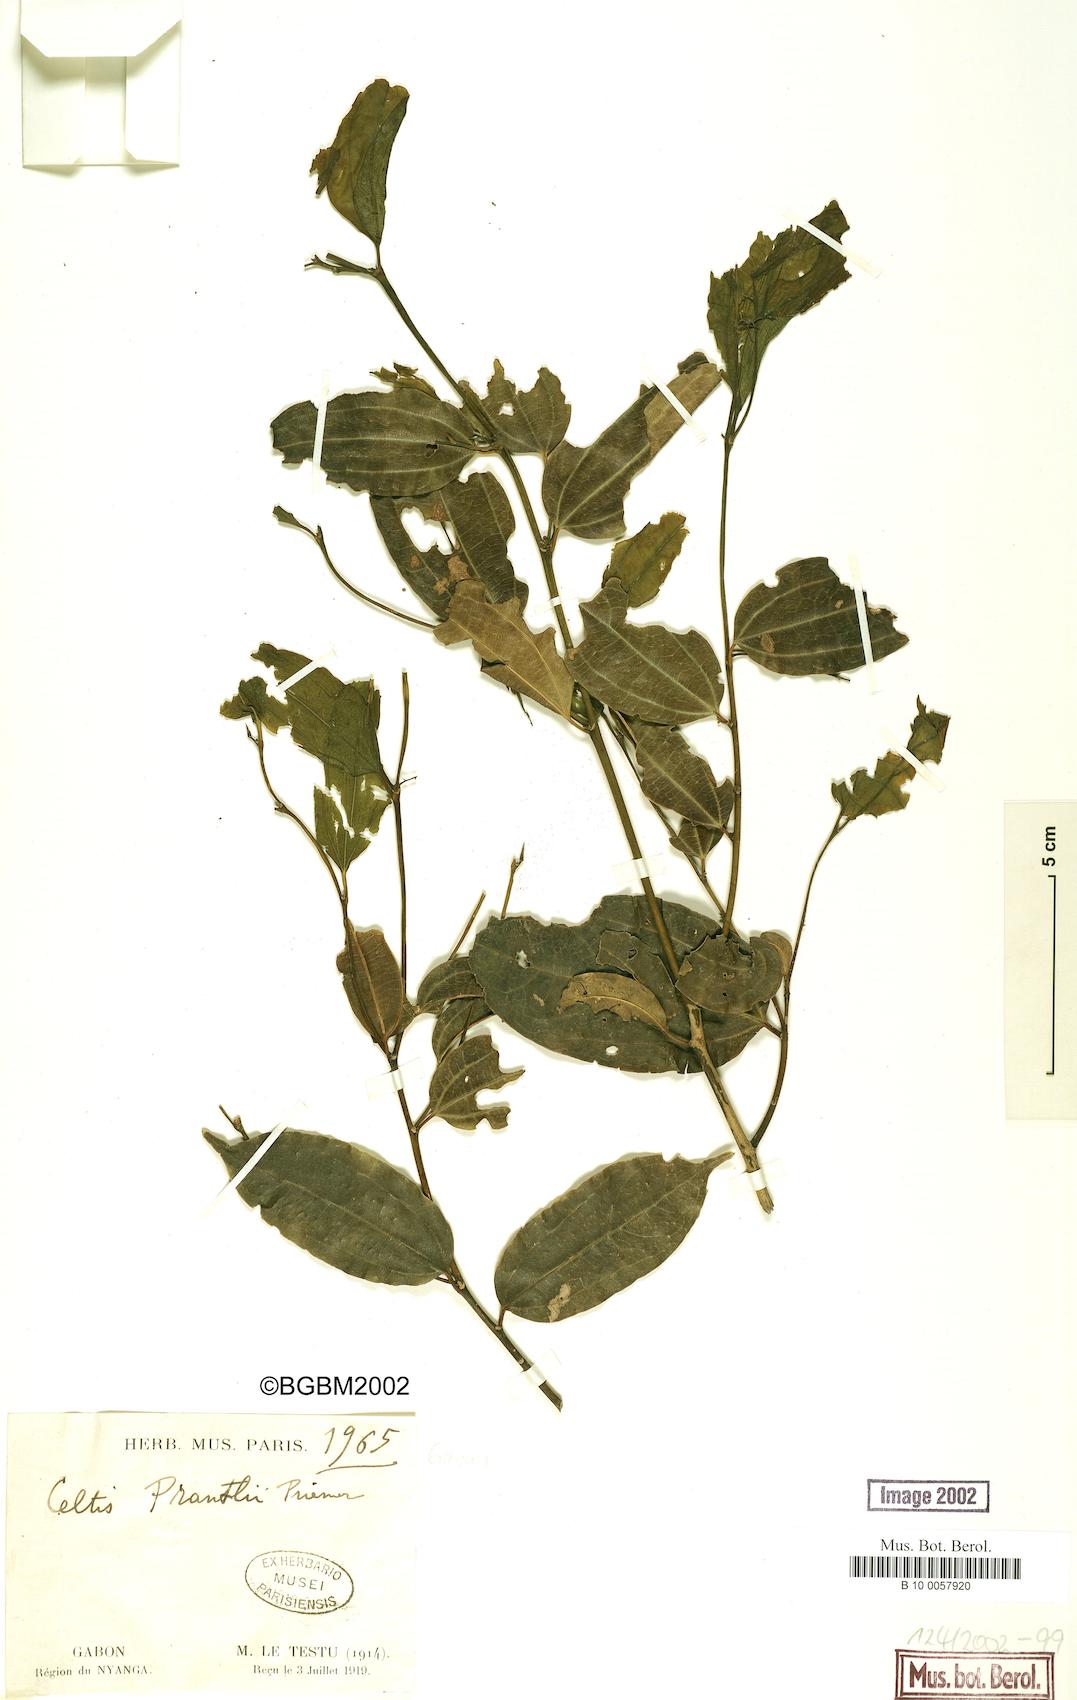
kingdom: Plantae
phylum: Tracheophyta
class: Magnoliopsida
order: Rosales
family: Cannabaceae
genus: Celtis
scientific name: Celtis philippensis
